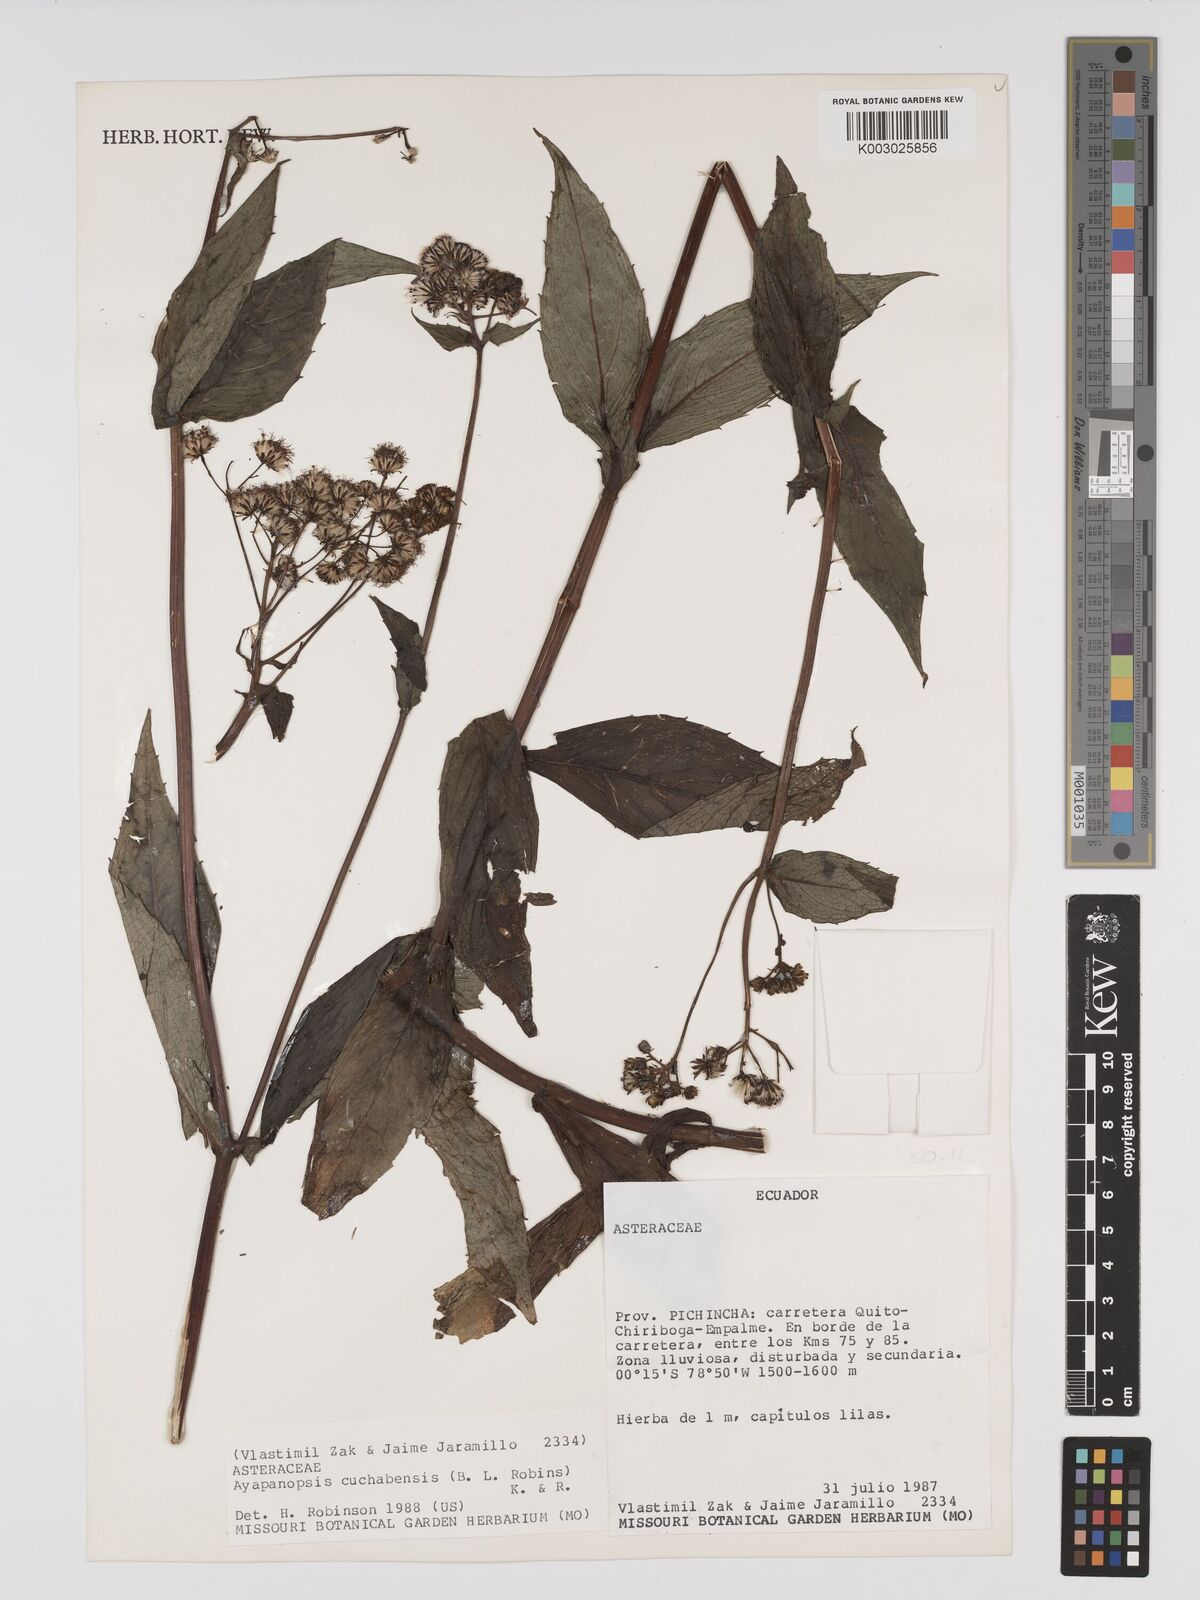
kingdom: Plantae
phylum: Tracheophyta
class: Magnoliopsida
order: Asterales
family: Asteraceae
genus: Ayapanopsis
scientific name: Ayapanopsis cuchabensis
